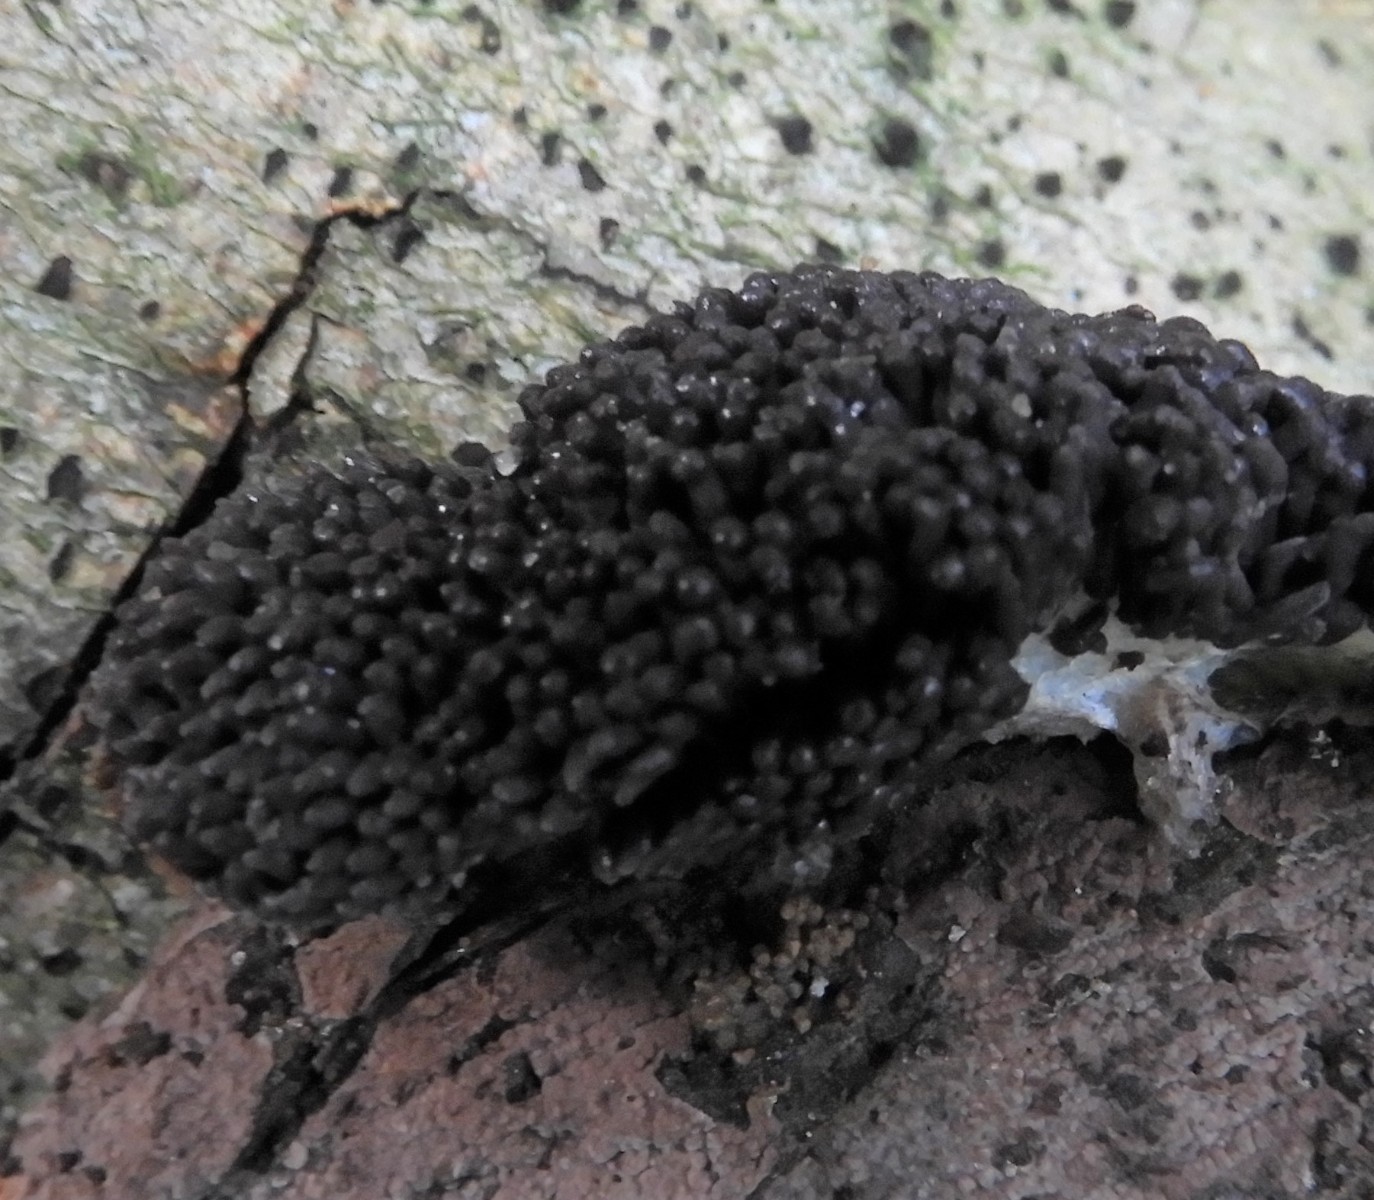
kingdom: Protozoa
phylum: Mycetozoa
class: Myxomycetes
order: Cribrariales
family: Tubiferaceae
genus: Tubifera
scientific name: Tubifera ferruginosa
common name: kanel-støvrør
